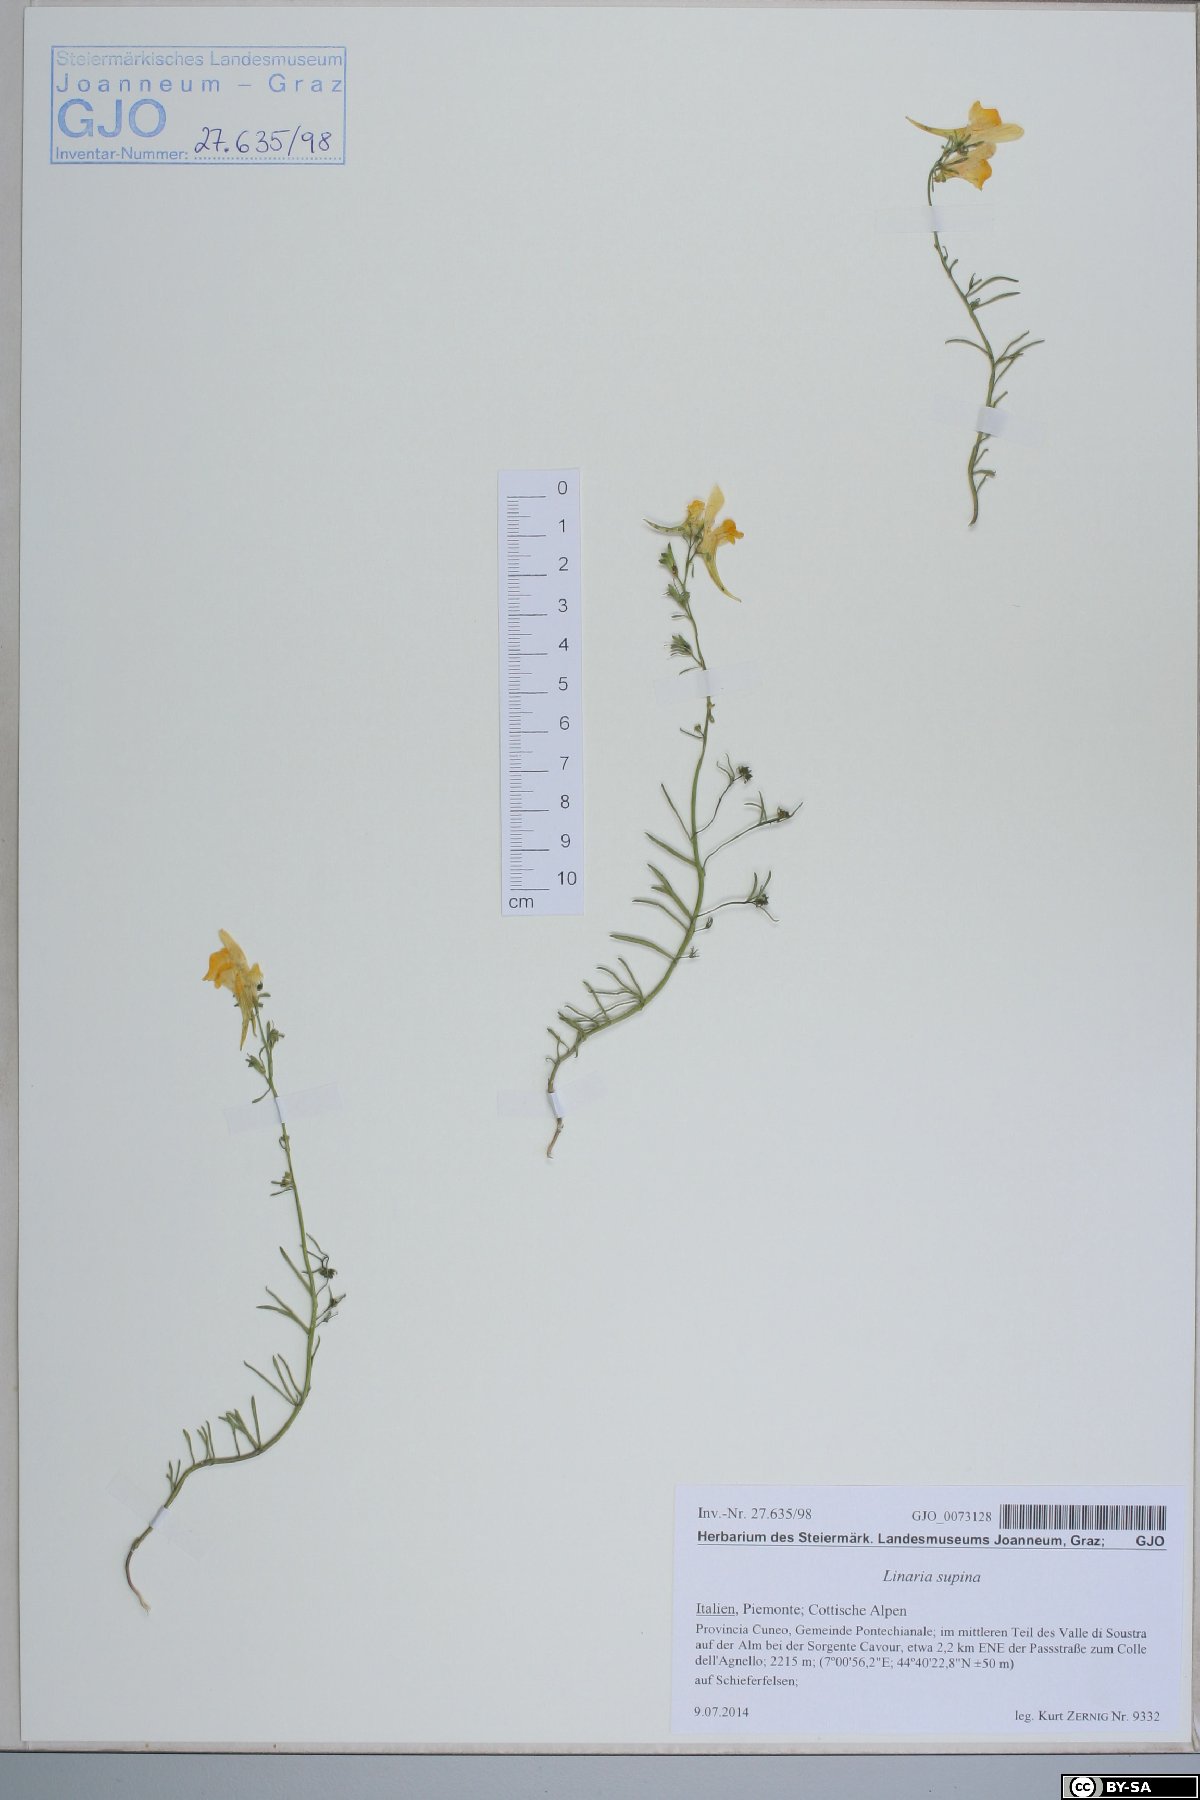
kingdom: Plantae
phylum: Tracheophyta
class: Magnoliopsida
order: Lamiales
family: Plantaginaceae
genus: Linaria
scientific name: Linaria supina
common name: Prostrate toadflax
